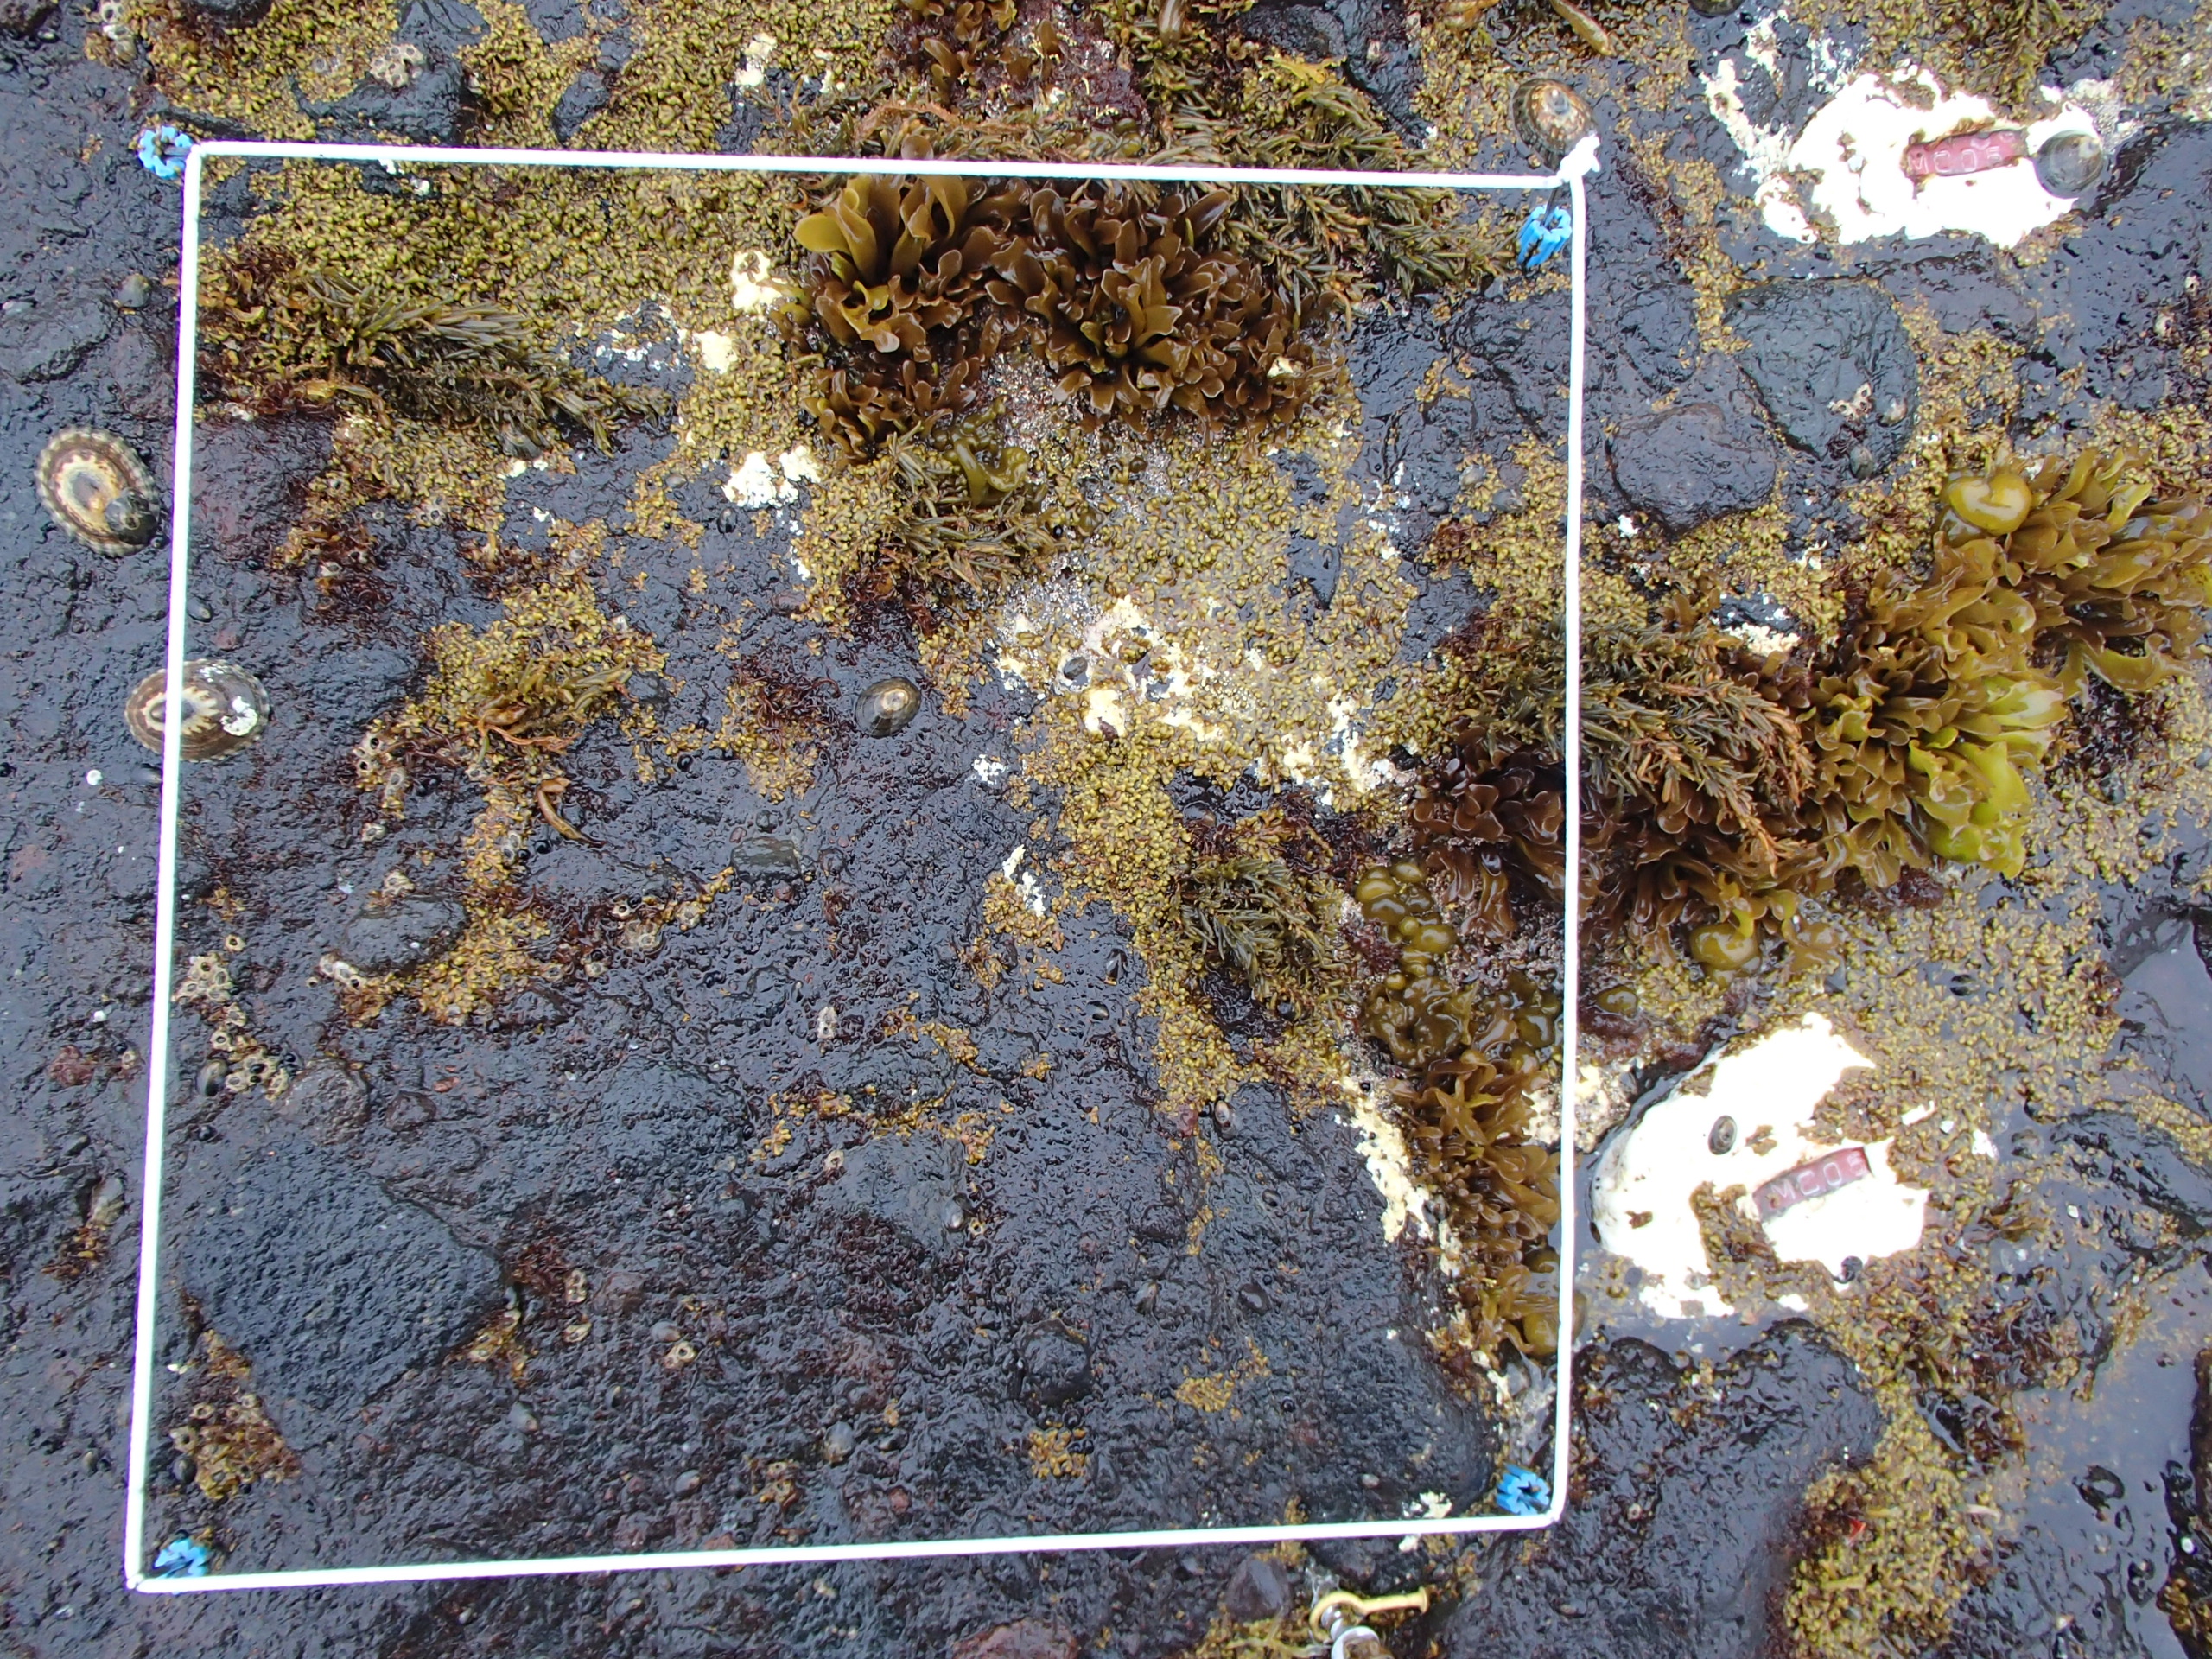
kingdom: Plantae
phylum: Rhodophyta
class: Florideophyceae
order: Corallinales
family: Corallinaceae
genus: Corallina
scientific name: Corallina pilulifera
